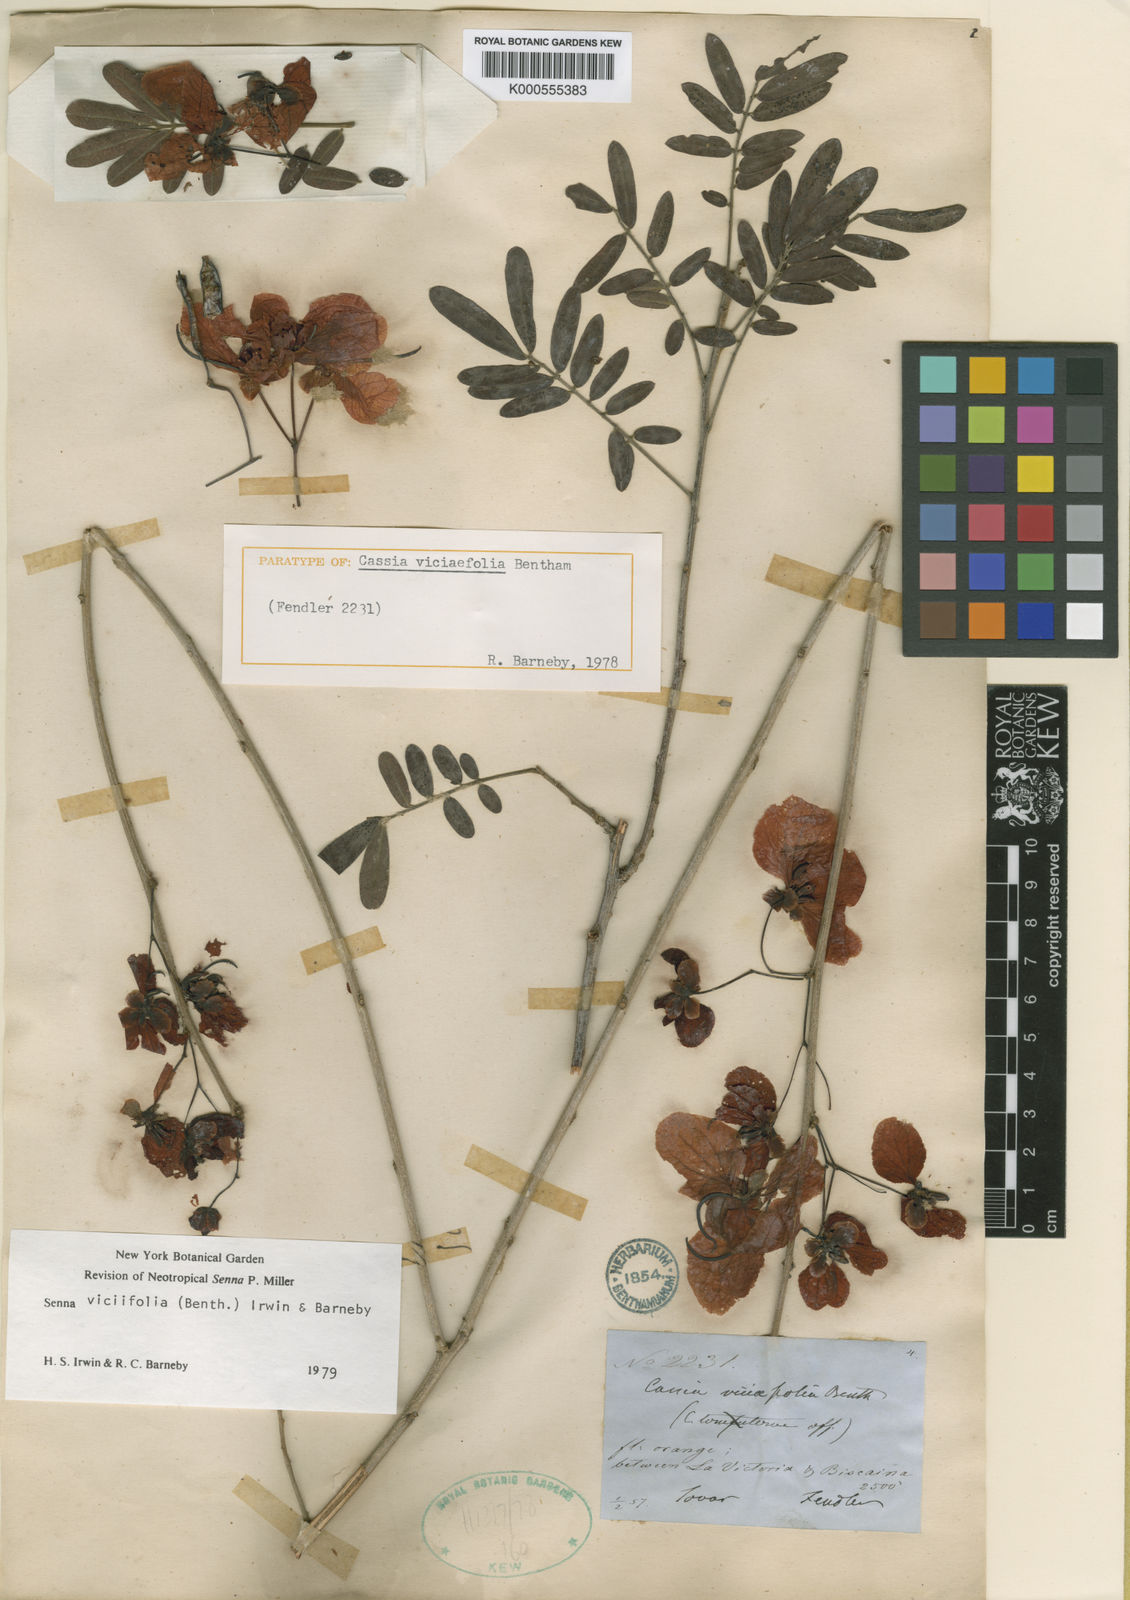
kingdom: Plantae
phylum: Tracheophyta
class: Magnoliopsida
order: Fabales
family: Fabaceae
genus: Senna
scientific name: Senna viciifolia
